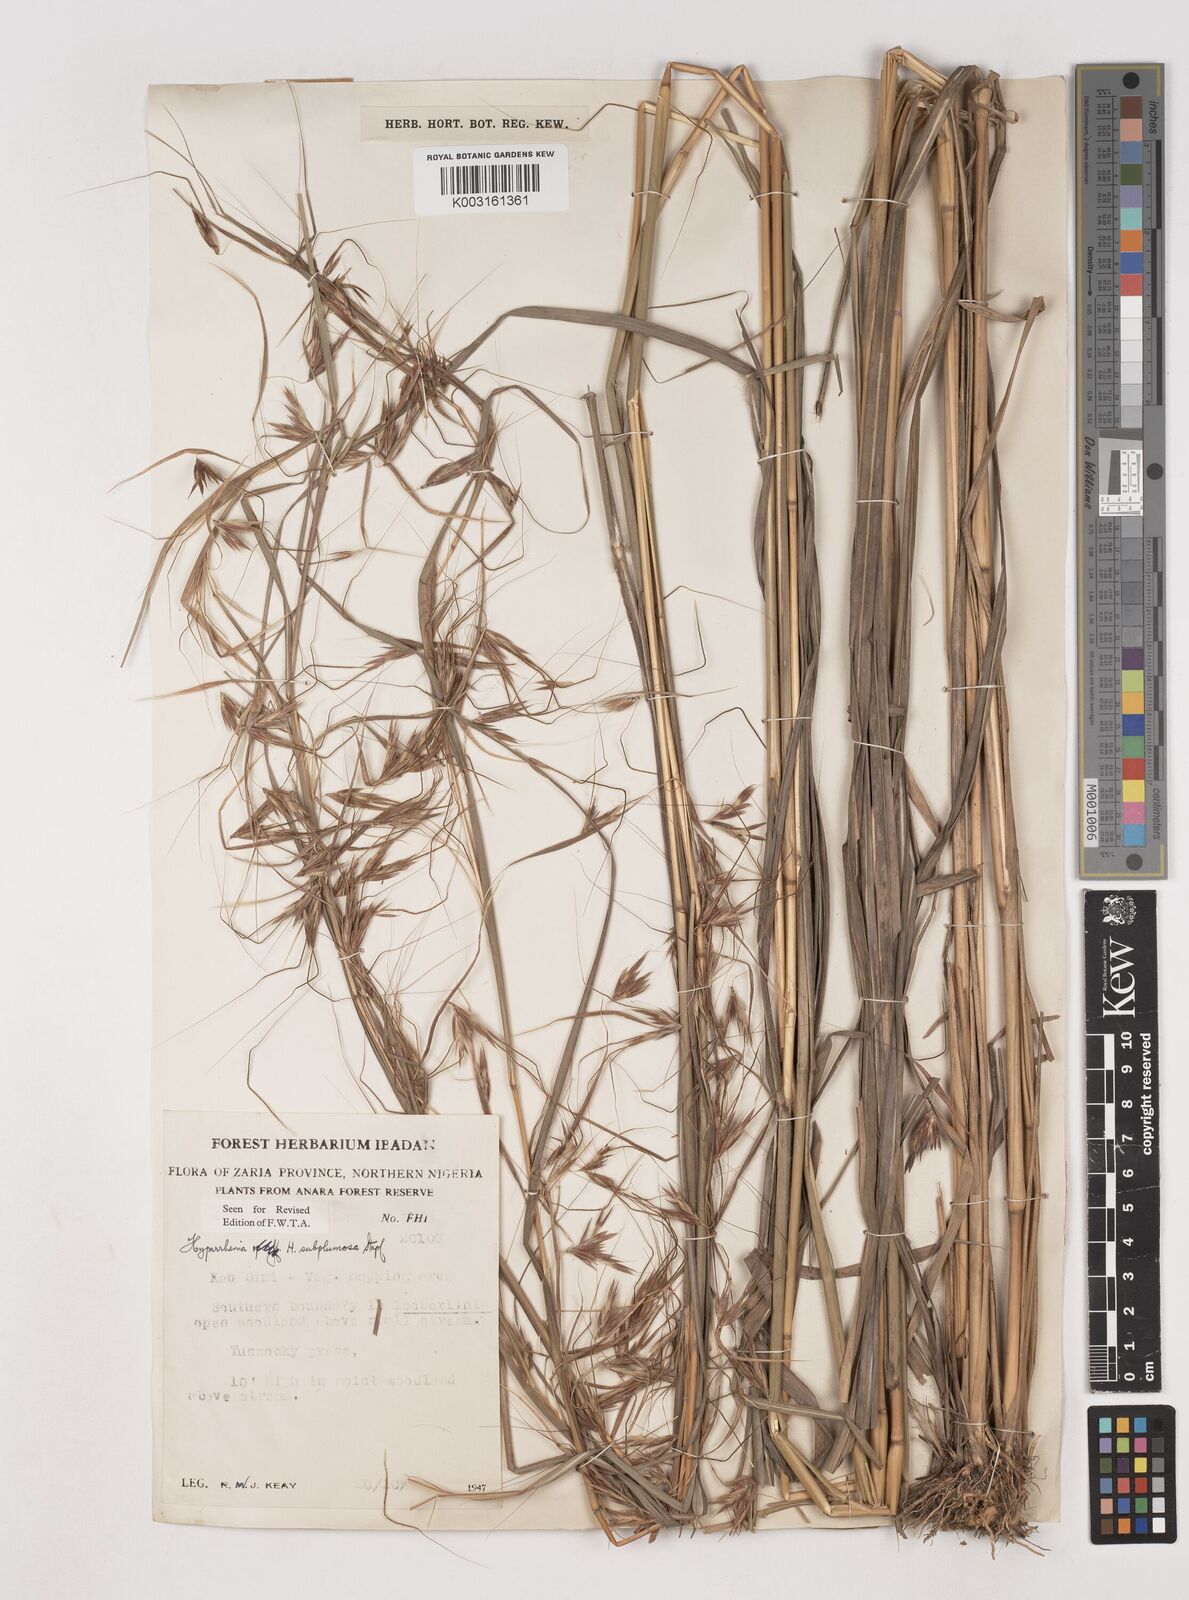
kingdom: Plantae
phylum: Tracheophyta
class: Liliopsida
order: Poales
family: Poaceae
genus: Hyparrhenia
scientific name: Hyparrhenia subplumosa
